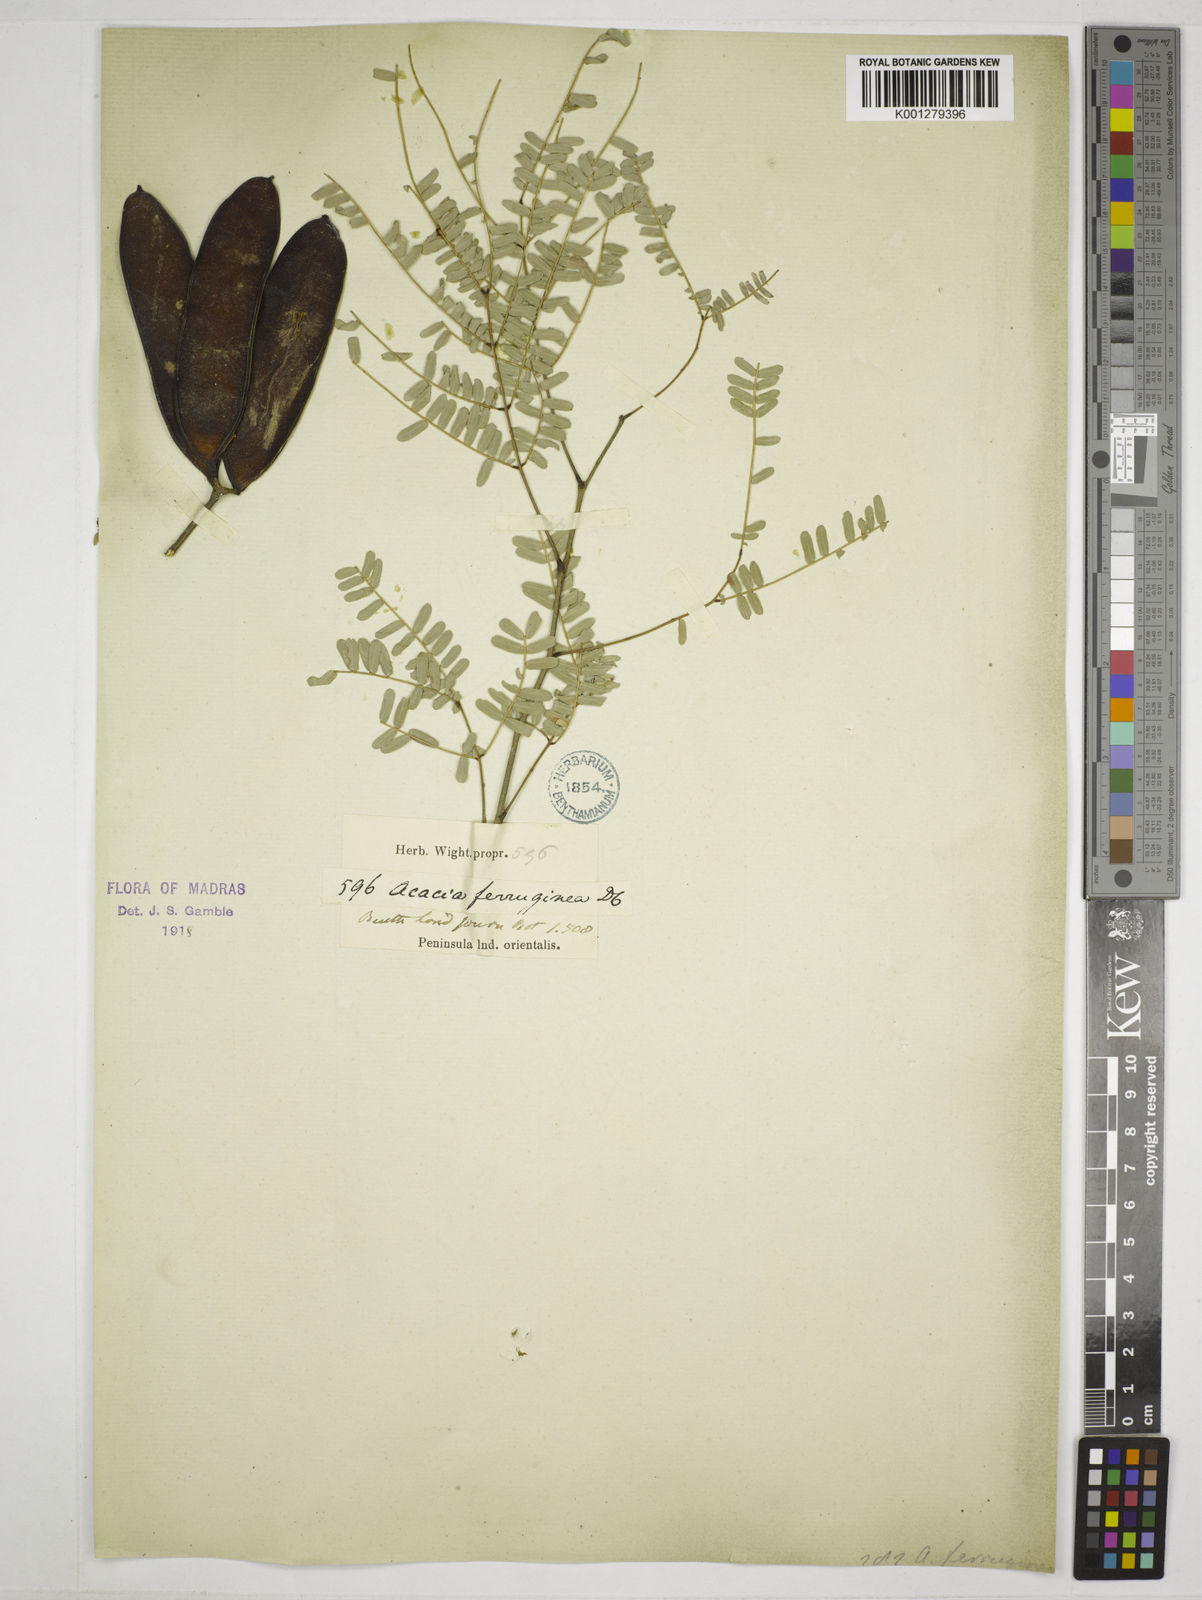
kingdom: Plantae
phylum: Tracheophyta
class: Magnoliopsida
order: Fabales
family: Fabaceae
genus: Senegalia
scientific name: Senegalia ferruginea
